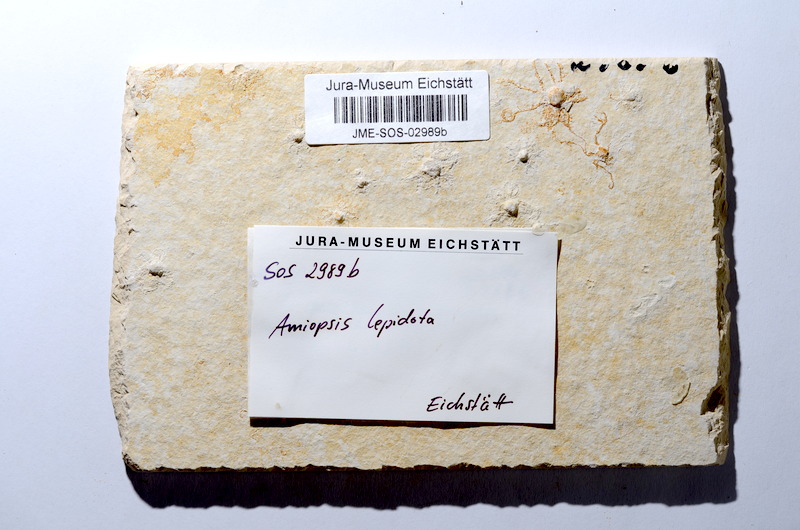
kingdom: Animalia
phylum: Chordata
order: Amiiformes
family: Amiidae
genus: Amiopsis
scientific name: Amiopsis lepidota
